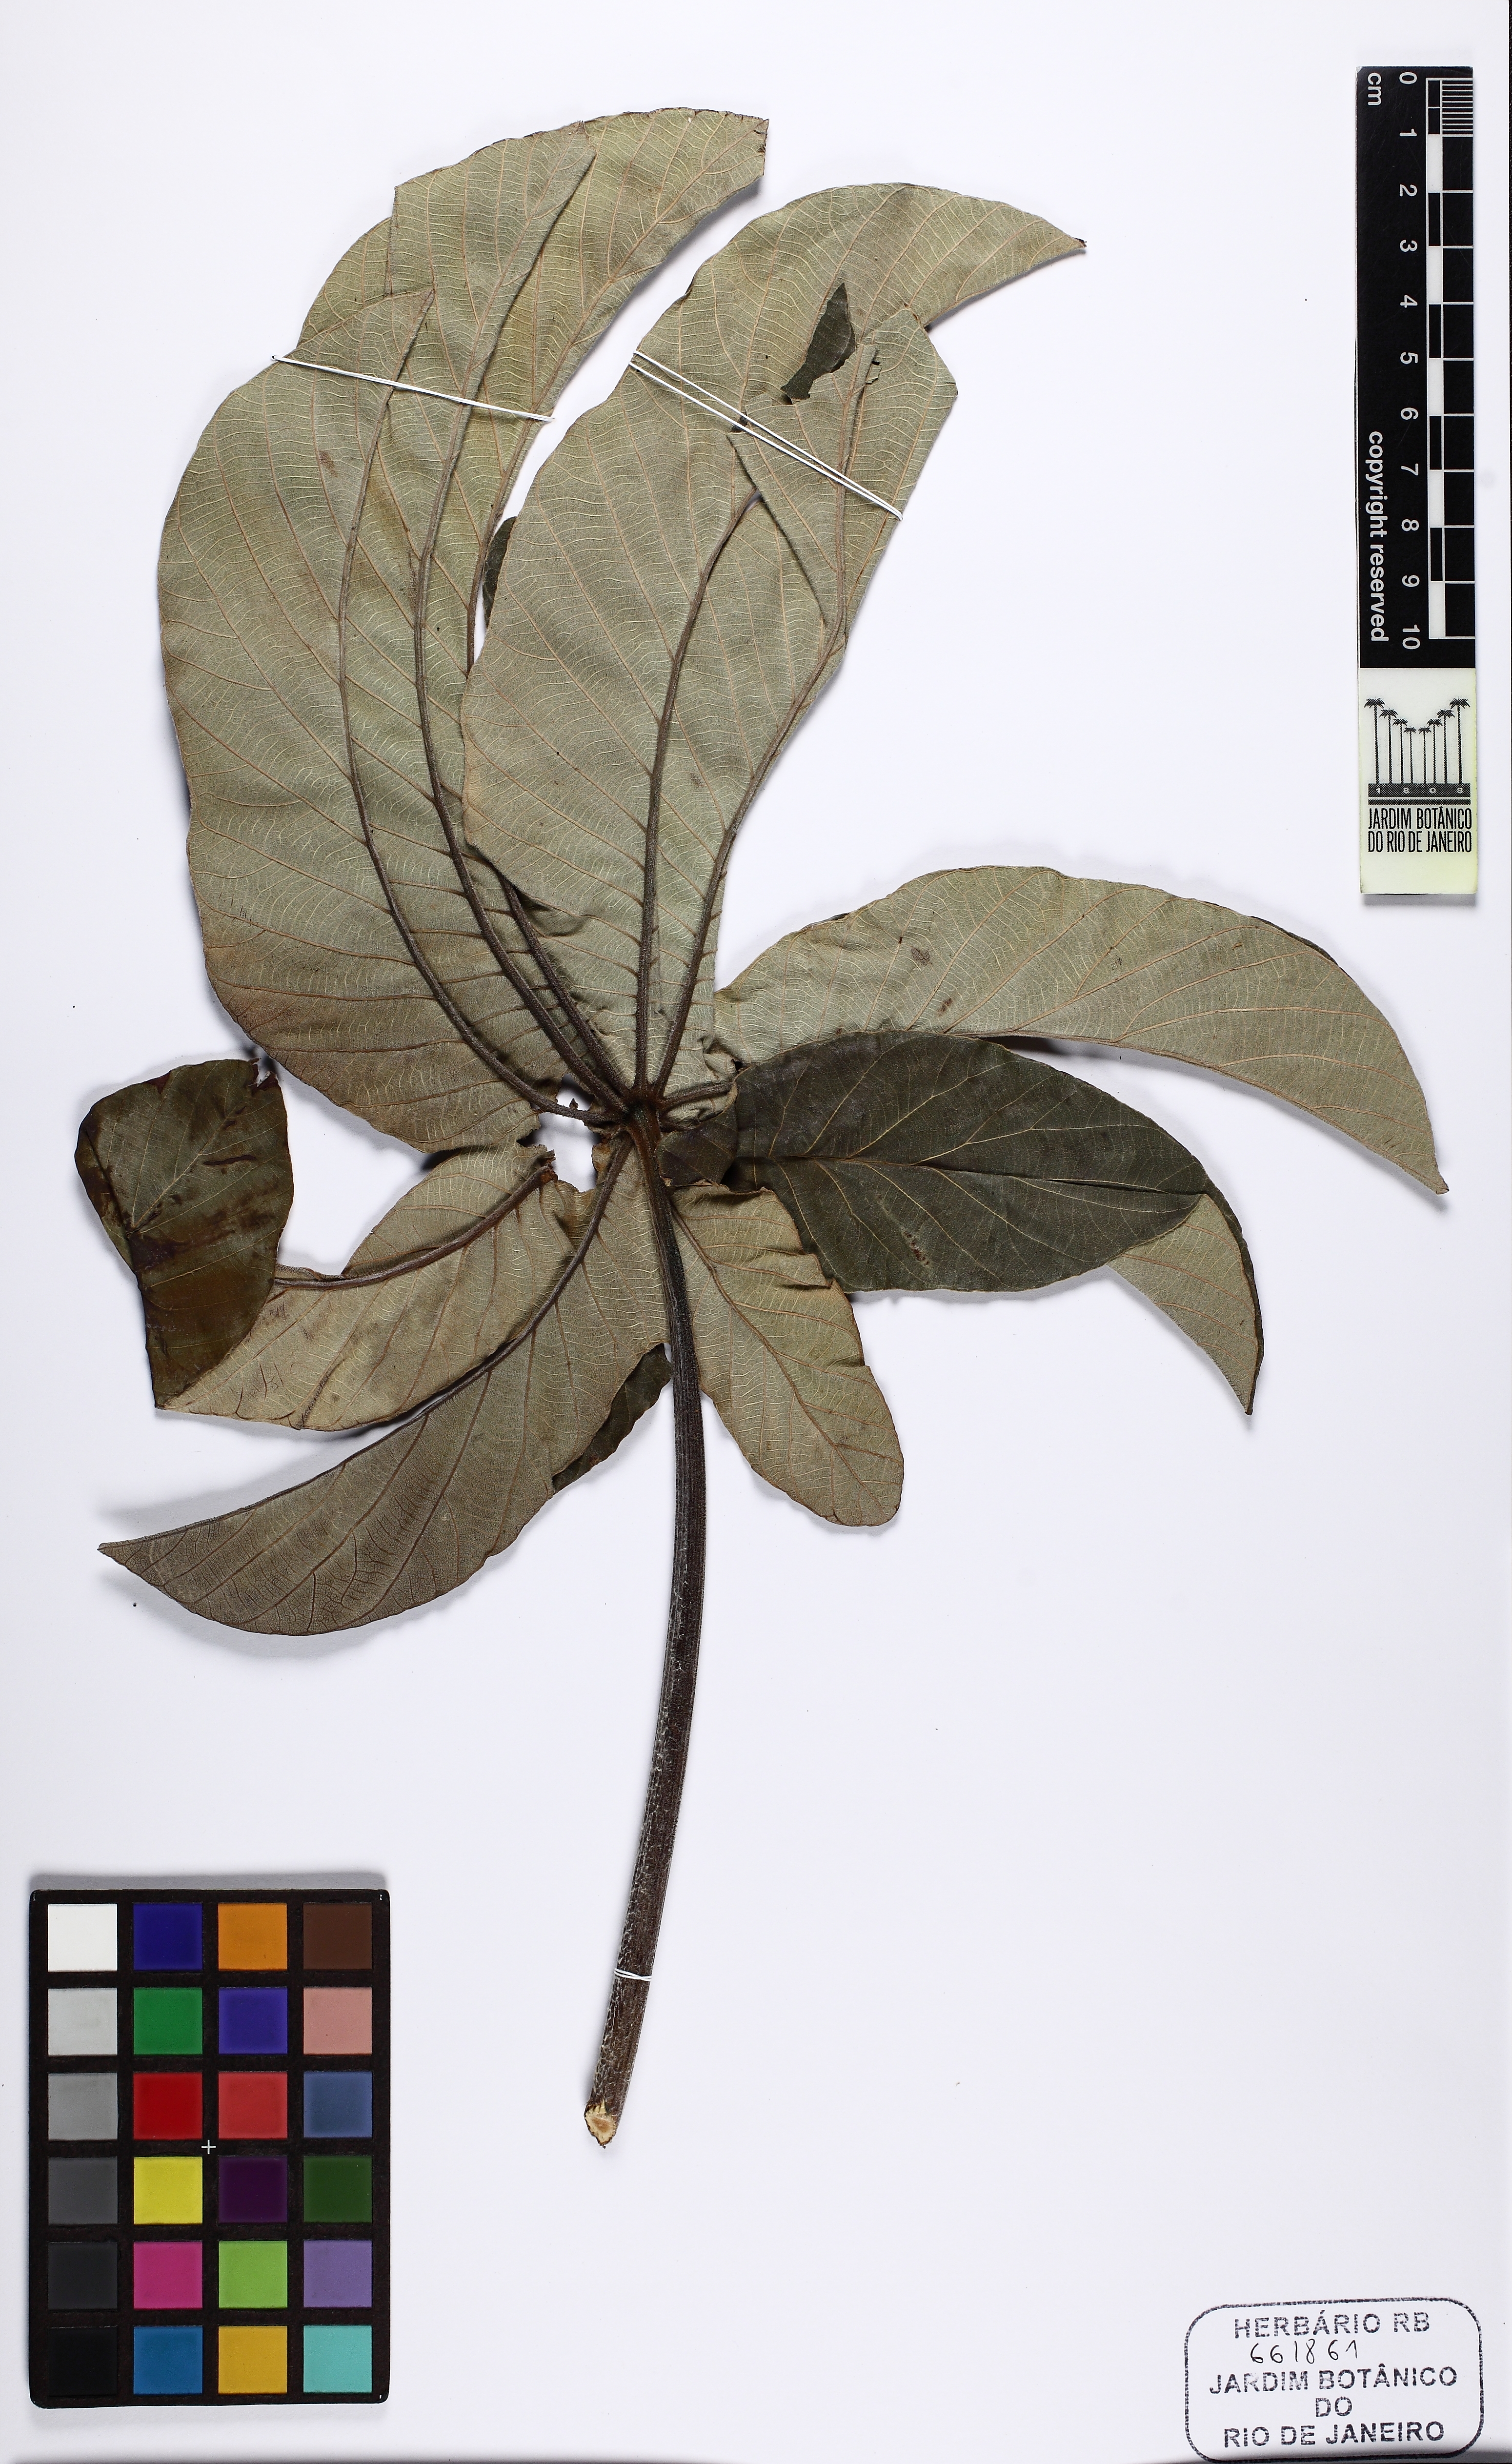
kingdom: Plantae
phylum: Tracheophyta
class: Magnoliopsida
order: Rosales
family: Urticaceae
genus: Cecropia
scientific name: Cecropia pachystachya
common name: Ambay pumpwood
